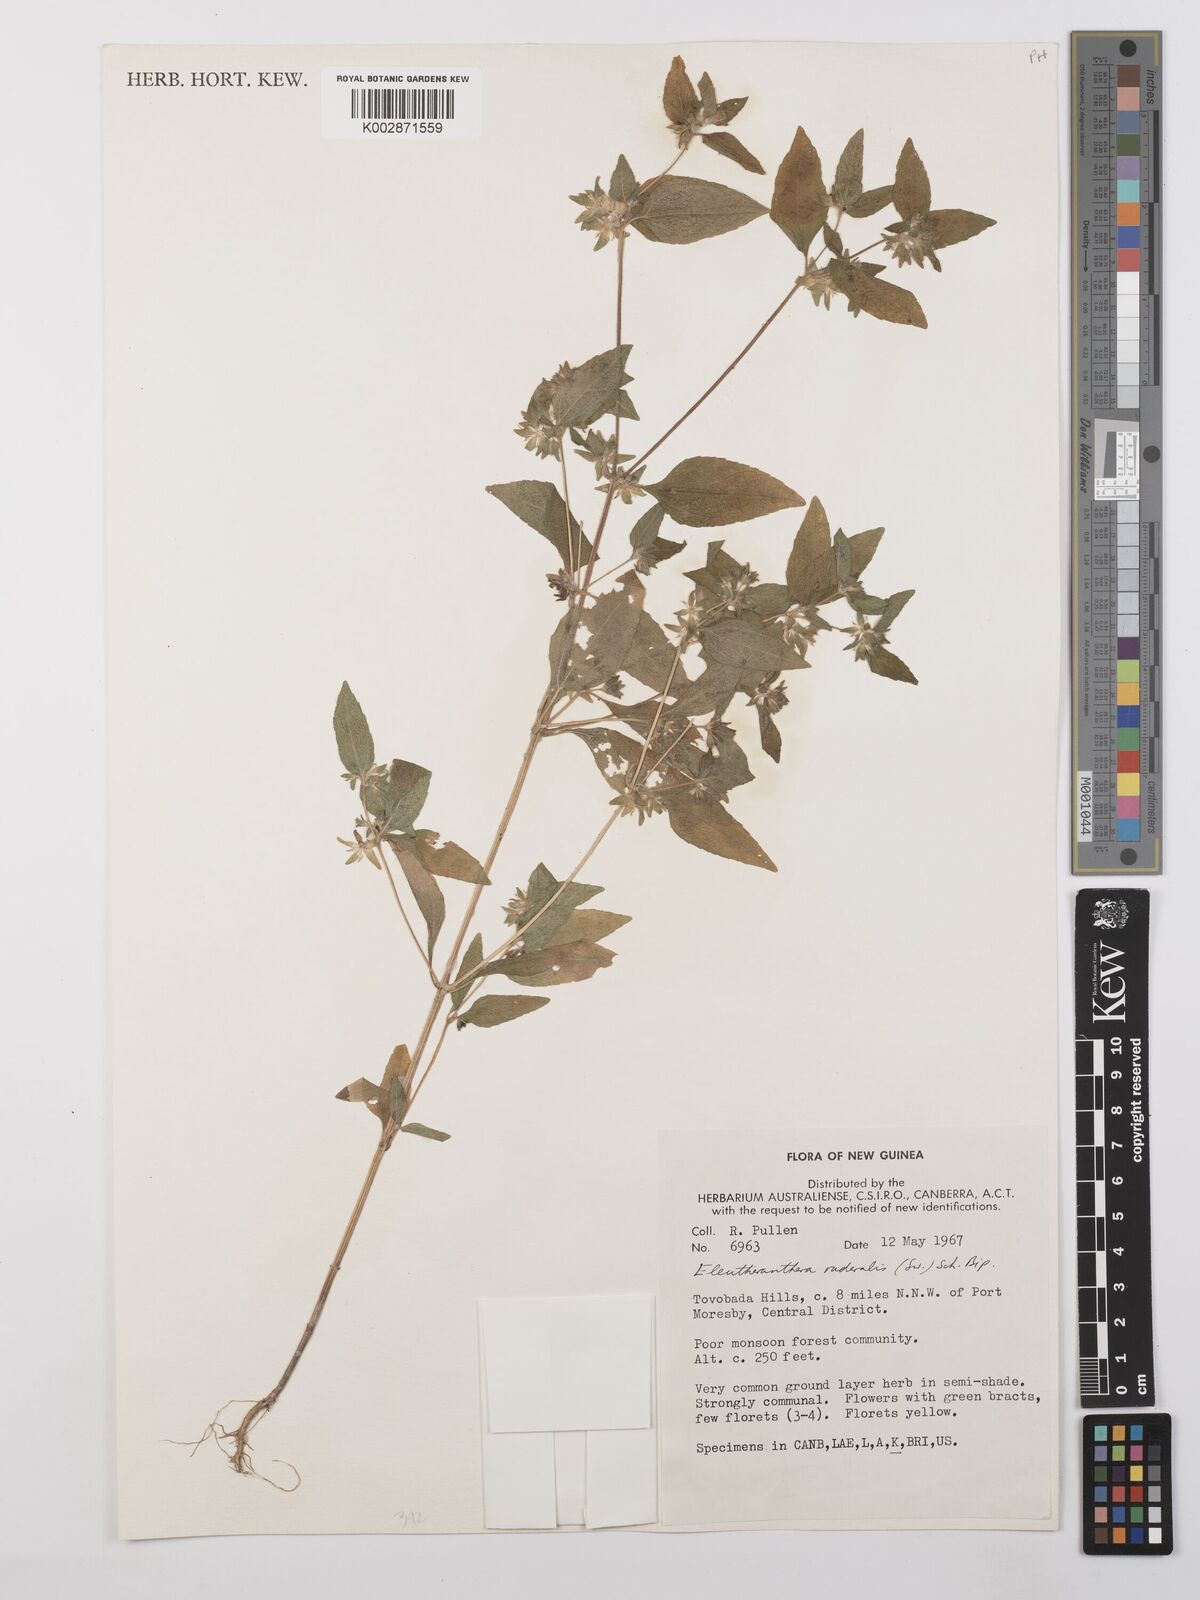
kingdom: Plantae
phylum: Tracheophyta
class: Magnoliopsida
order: Asterales
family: Asteraceae
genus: Eleutheranthera
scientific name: Eleutheranthera ruderalis
